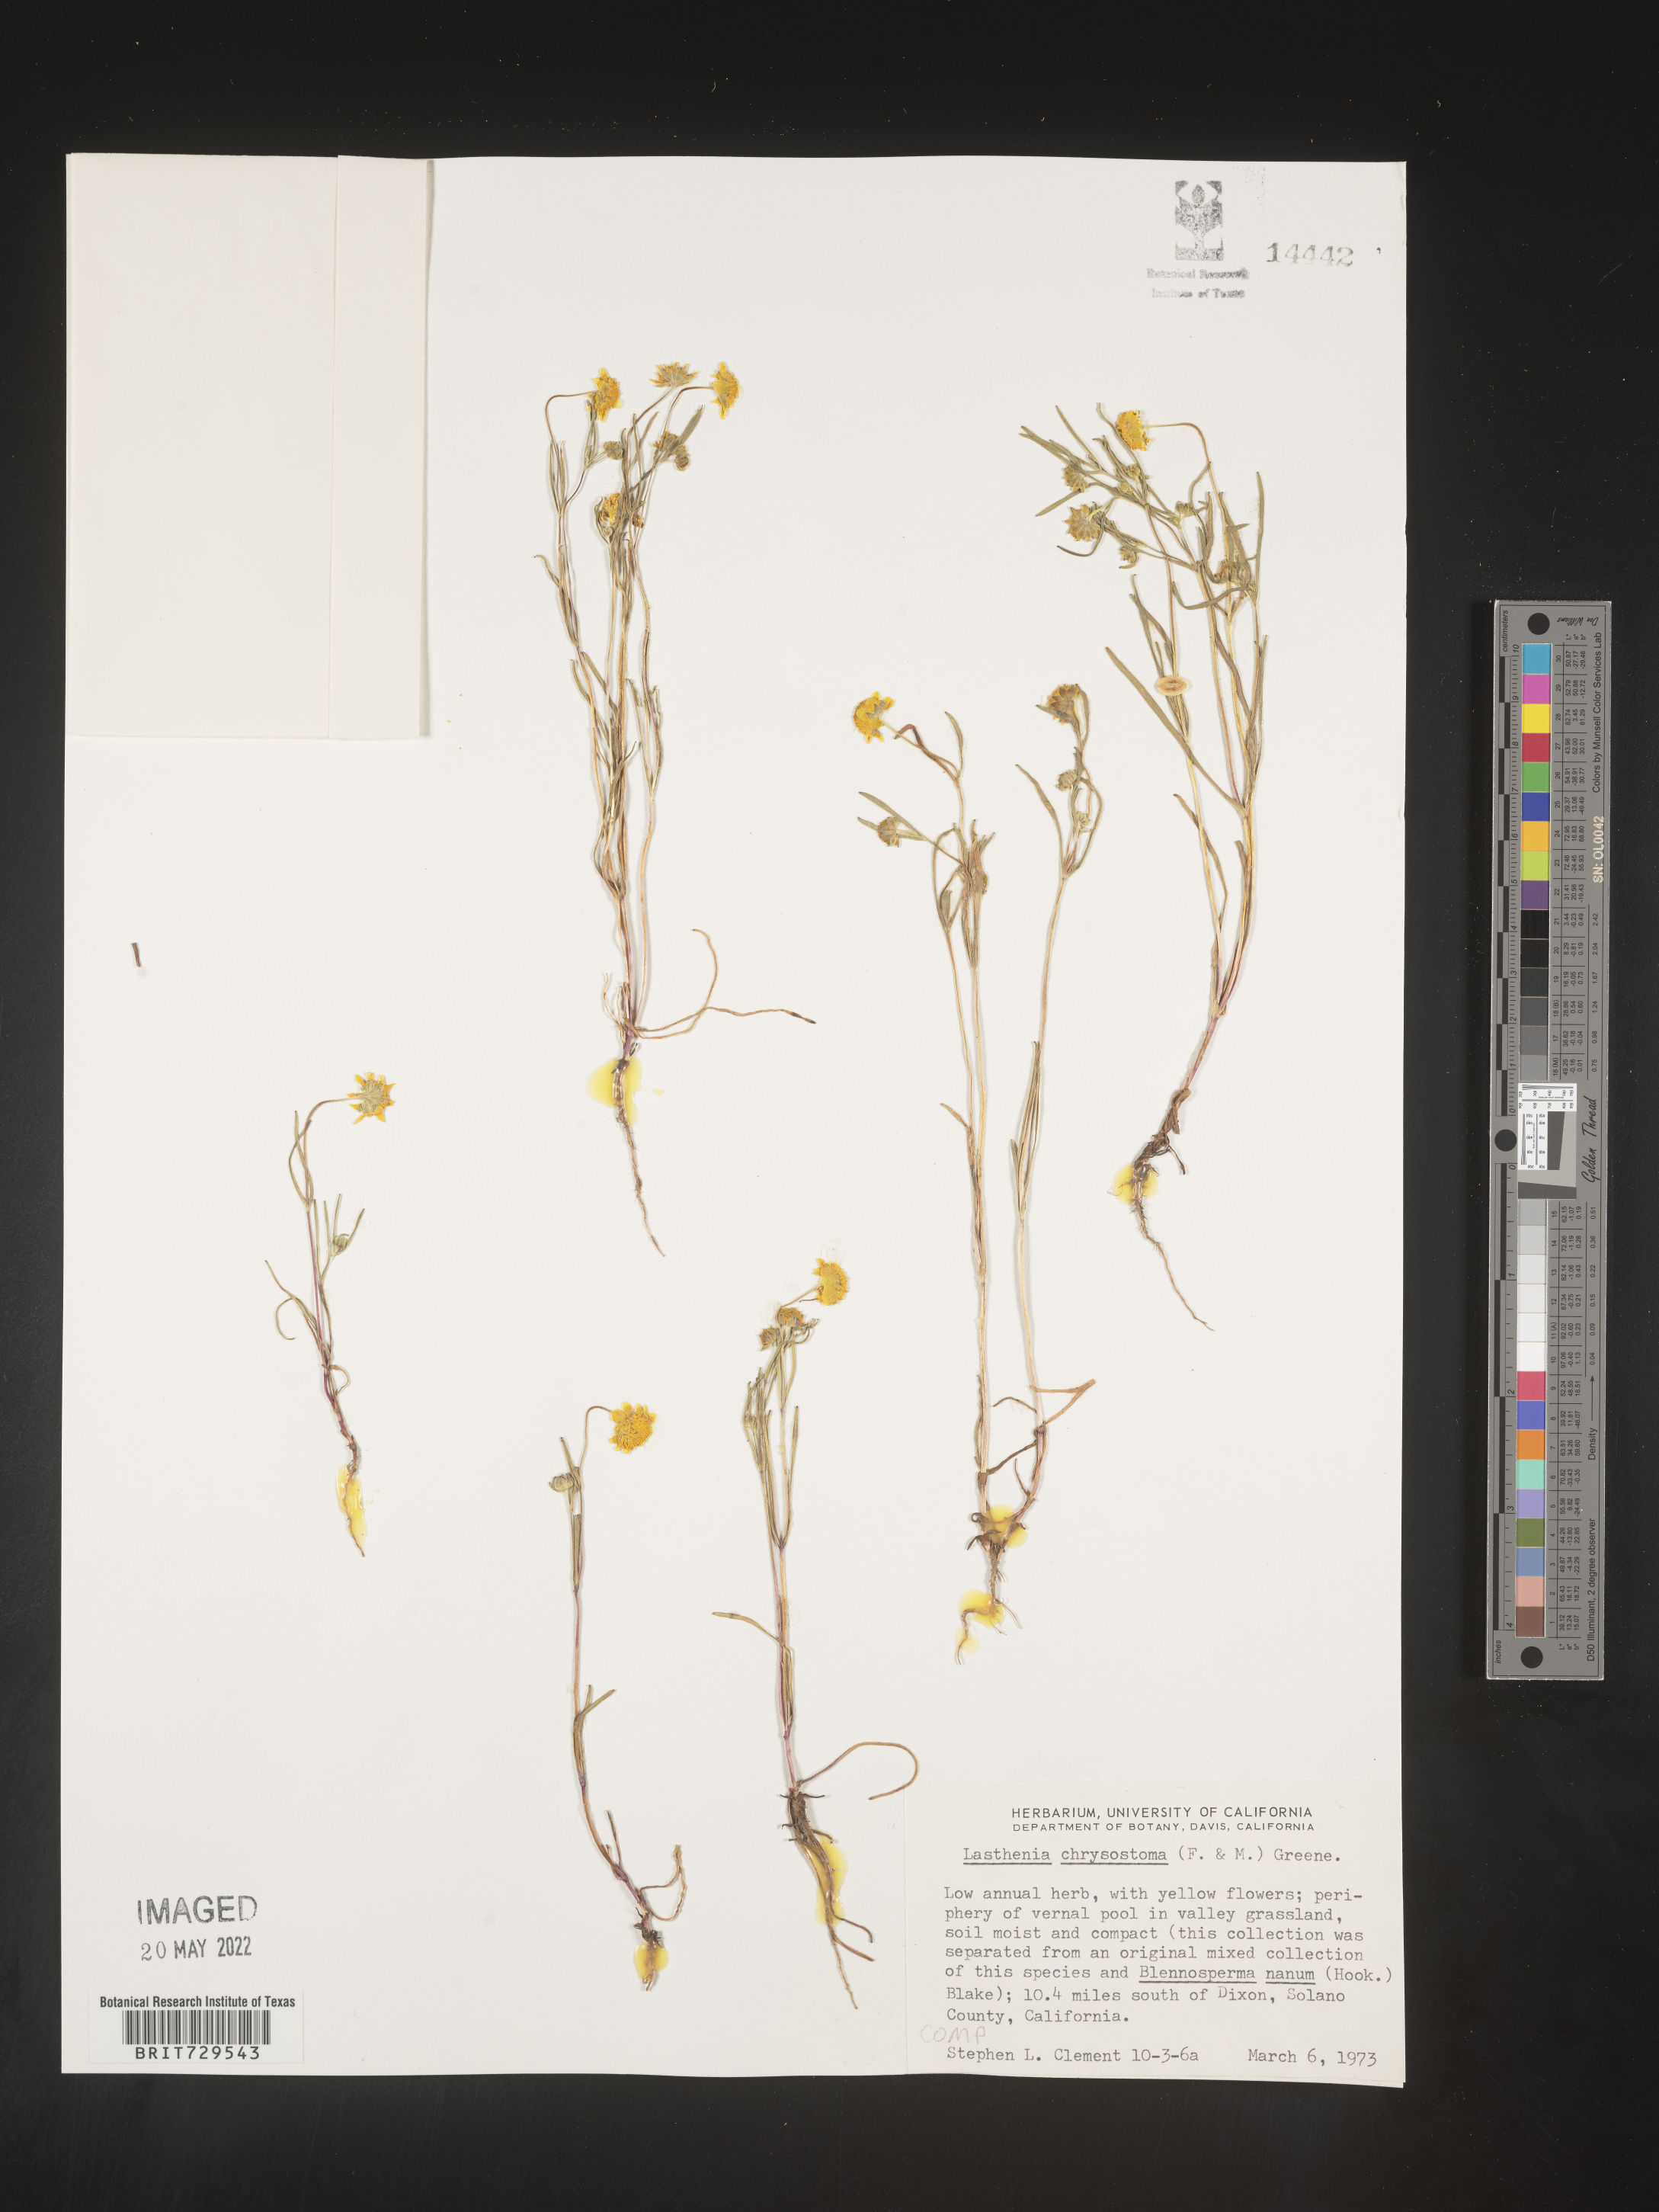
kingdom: Plantae
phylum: Tracheophyta
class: Magnoliopsida
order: Asterales
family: Asteraceae
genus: Lasthenia
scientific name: Lasthenia
